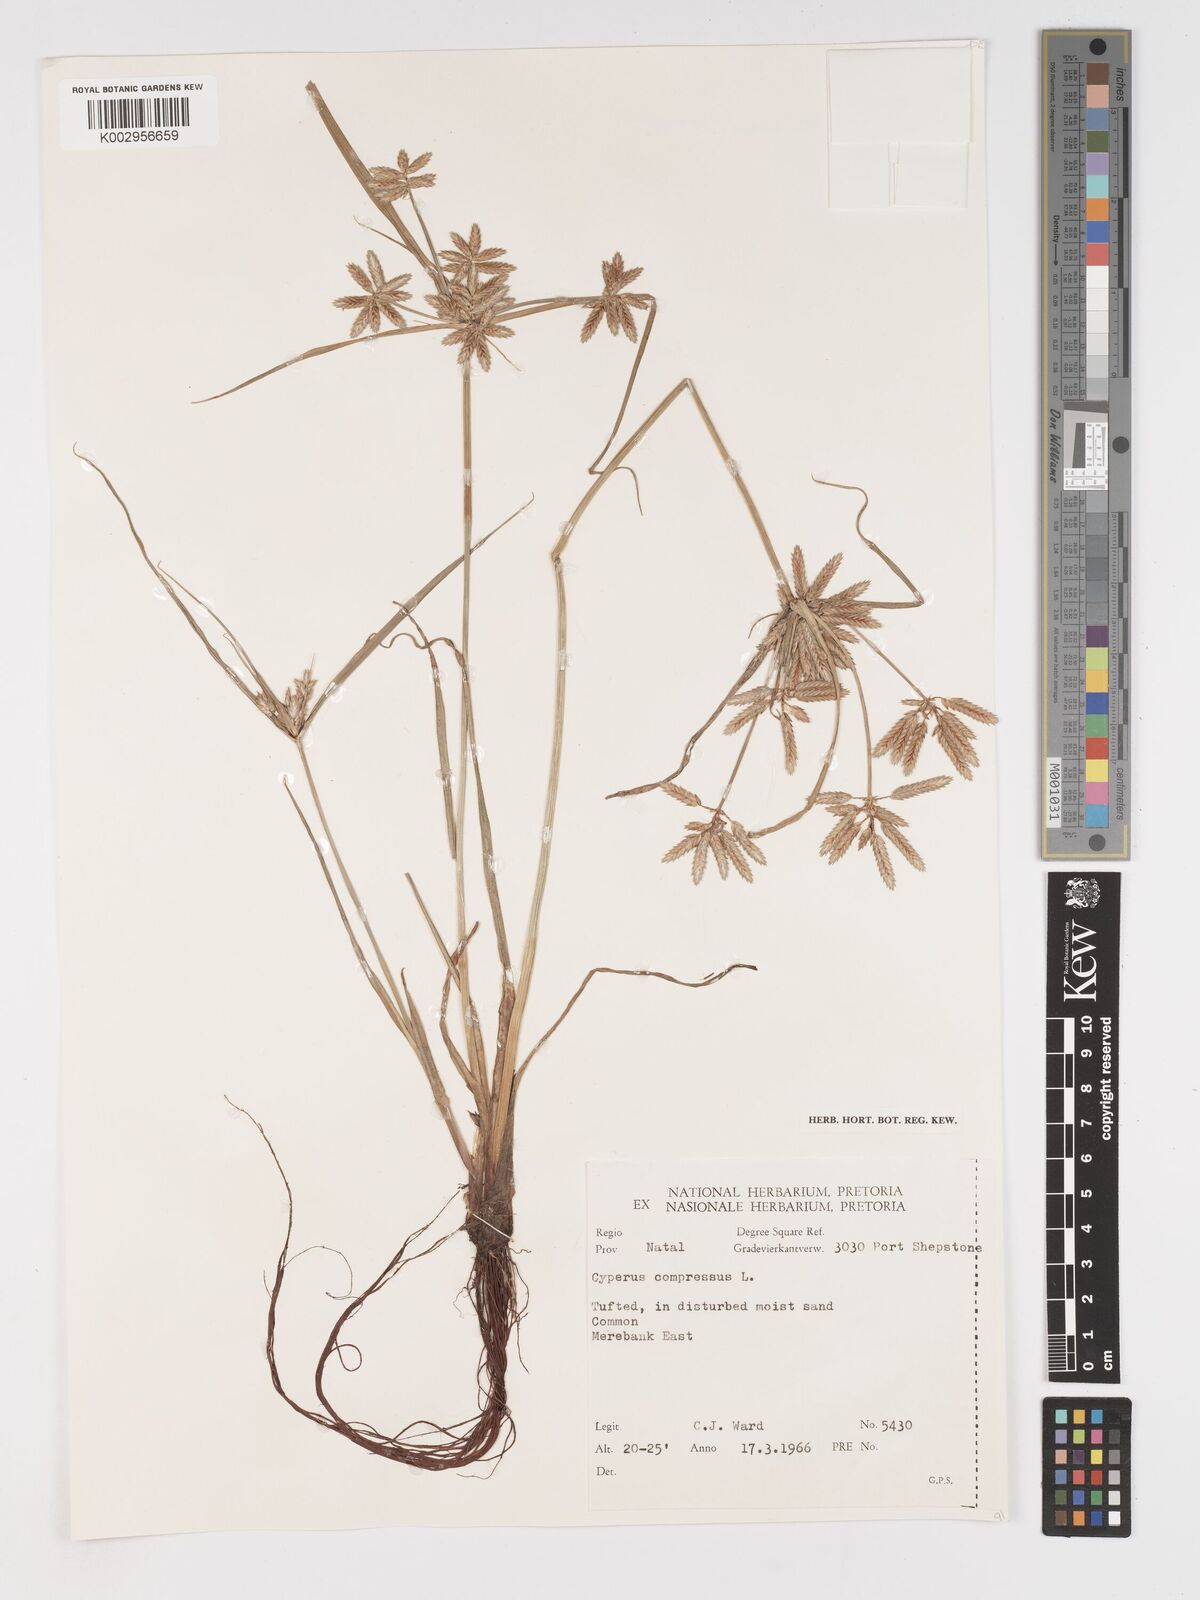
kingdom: Plantae
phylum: Tracheophyta
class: Liliopsida
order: Poales
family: Cyperaceae
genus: Cyperus
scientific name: Cyperus compressus
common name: Poorland flatsedge
